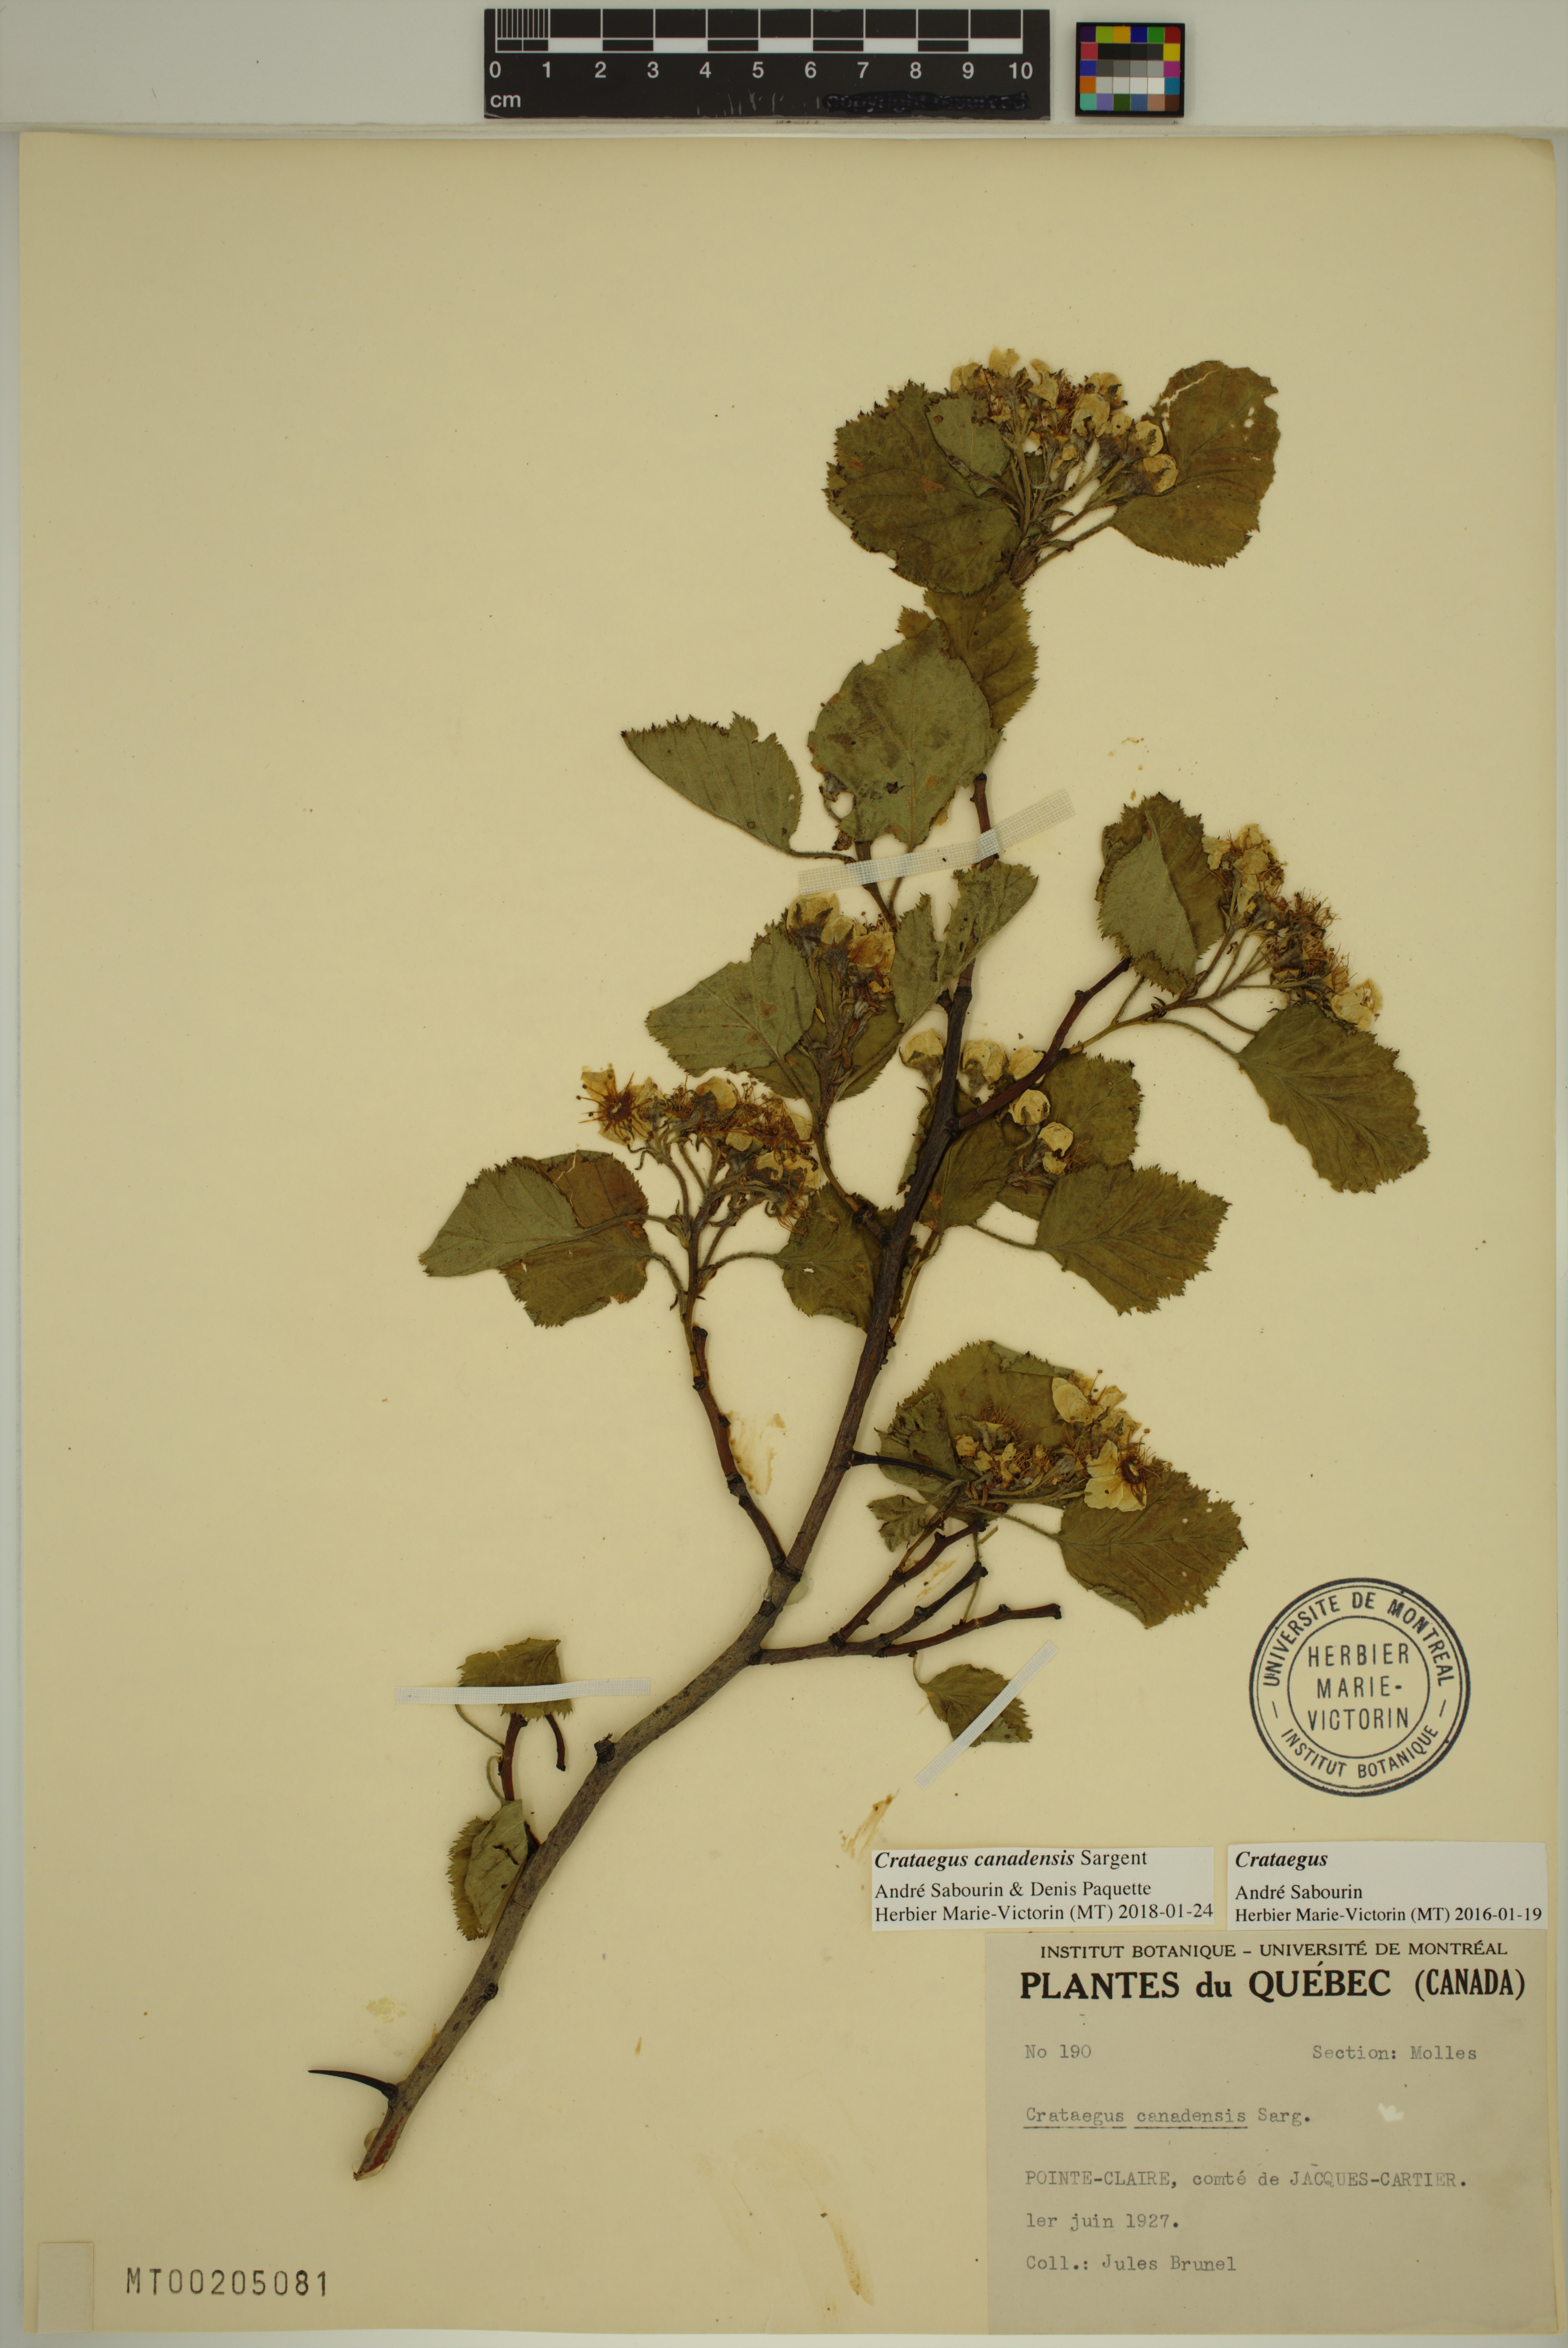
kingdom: Plantae
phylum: Tracheophyta
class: Magnoliopsida
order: Rosales
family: Rosaceae
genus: Crataegus
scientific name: Crataegus submollis
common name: Hairy cockspurthorn
